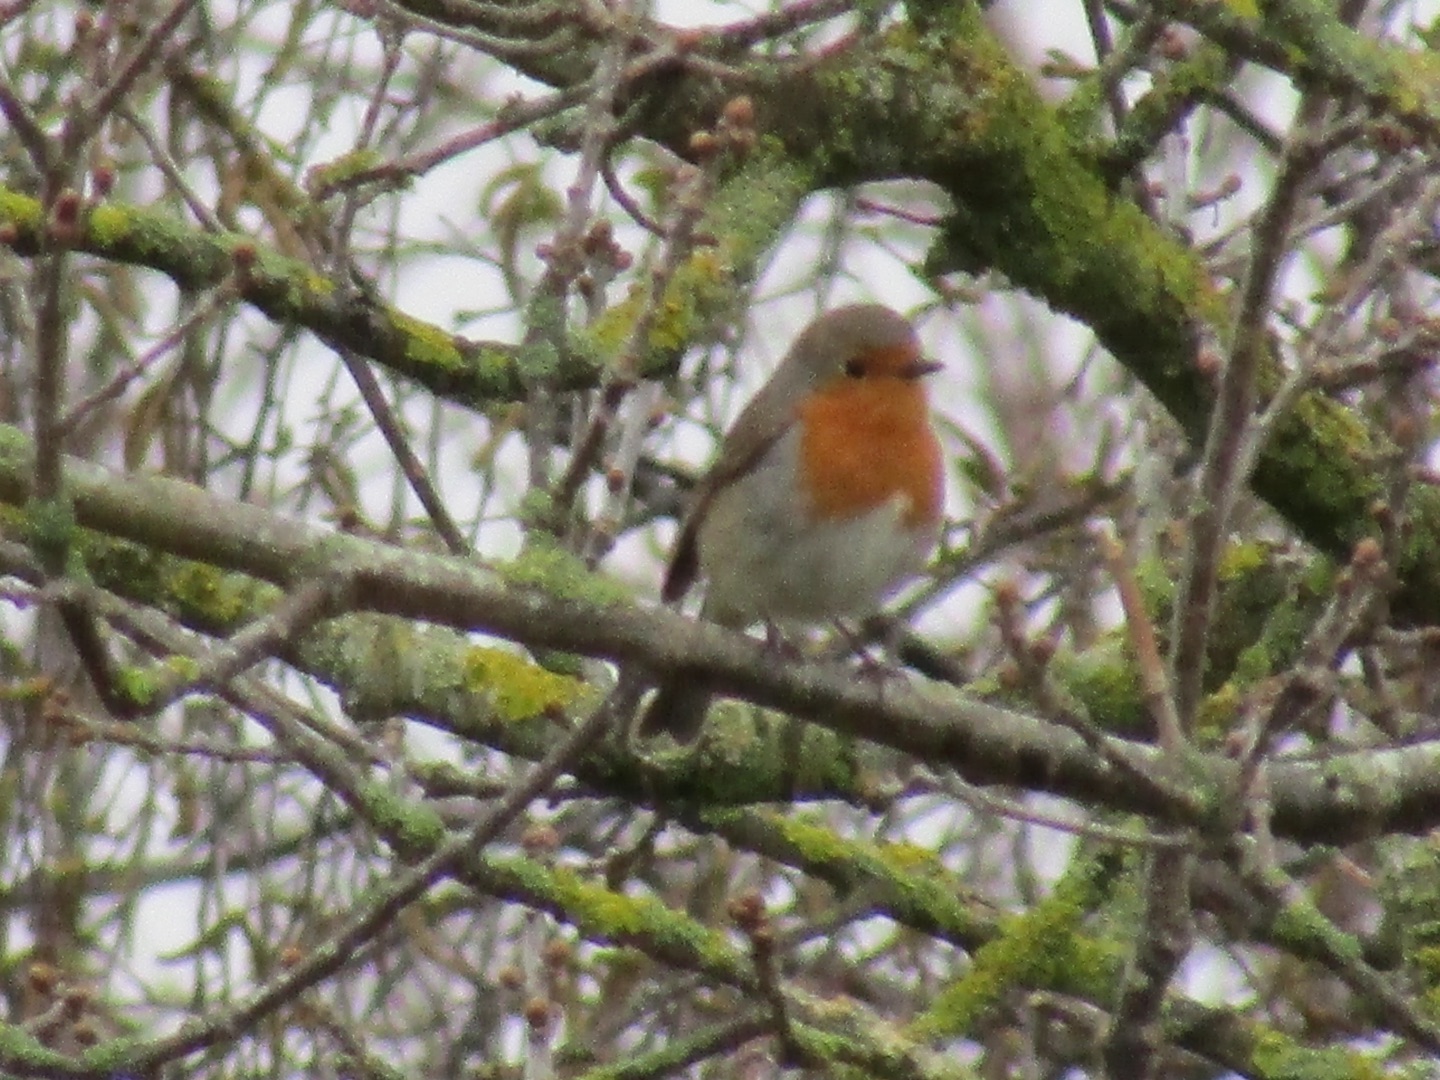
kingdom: Animalia
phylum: Chordata
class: Aves
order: Passeriformes
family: Muscicapidae
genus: Erithacus
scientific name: Erithacus rubecula
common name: Rødhals/rødkælk
